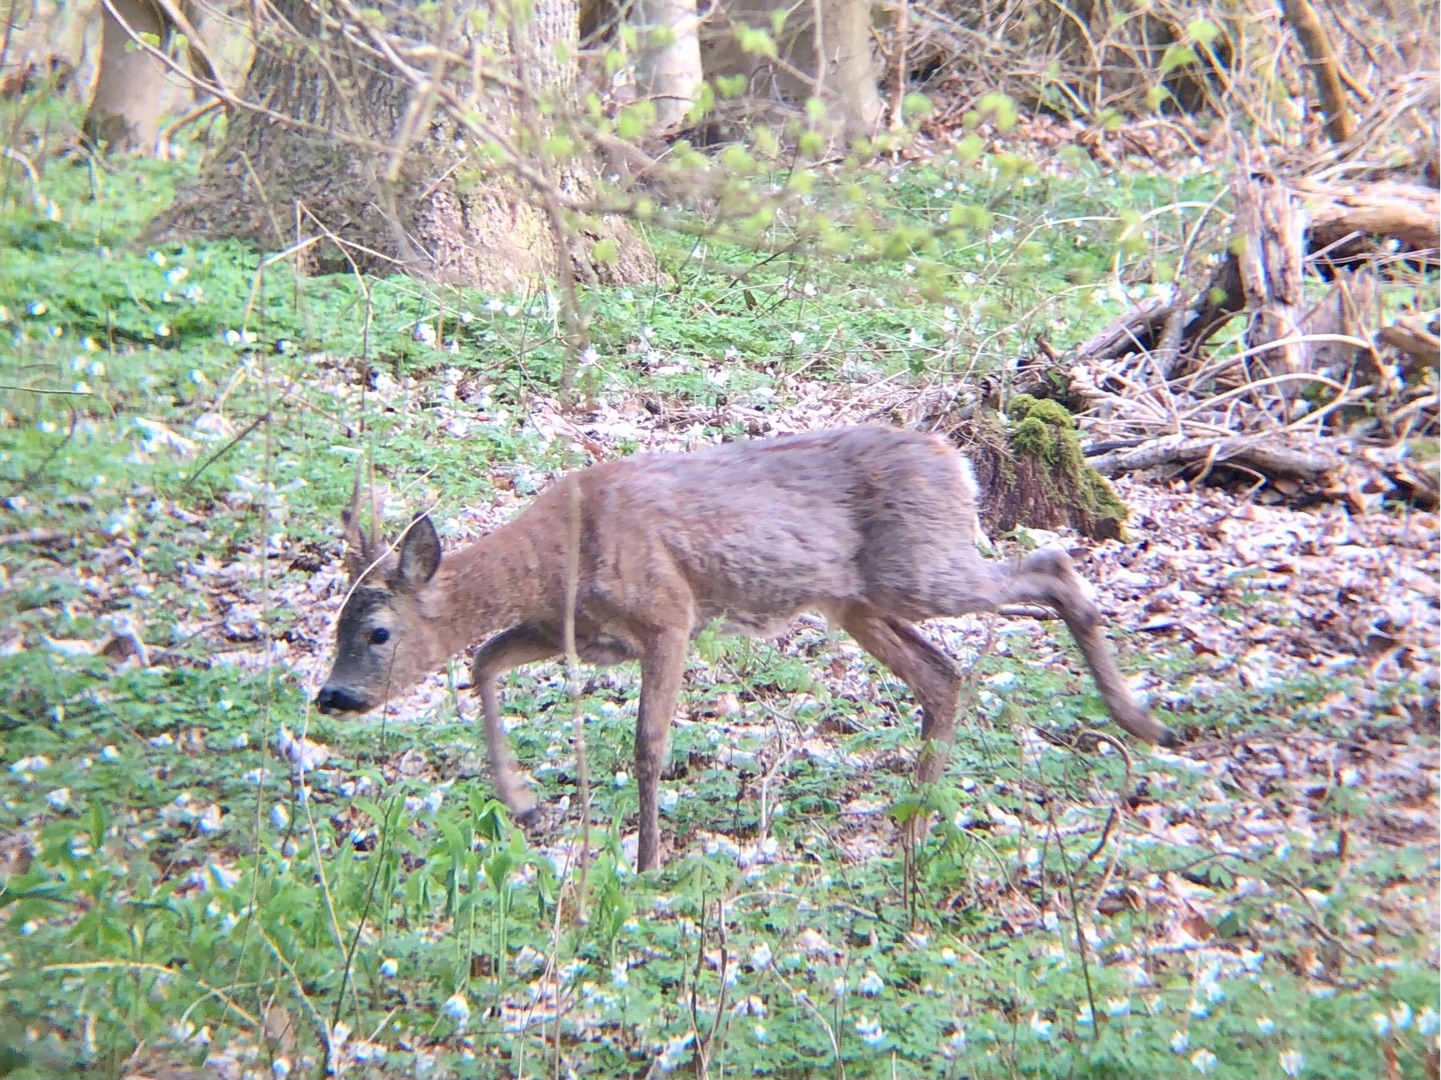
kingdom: Animalia
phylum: Chordata
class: Mammalia
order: Artiodactyla
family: Cervidae
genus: Capreolus
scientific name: Capreolus capreolus
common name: Rådyr
